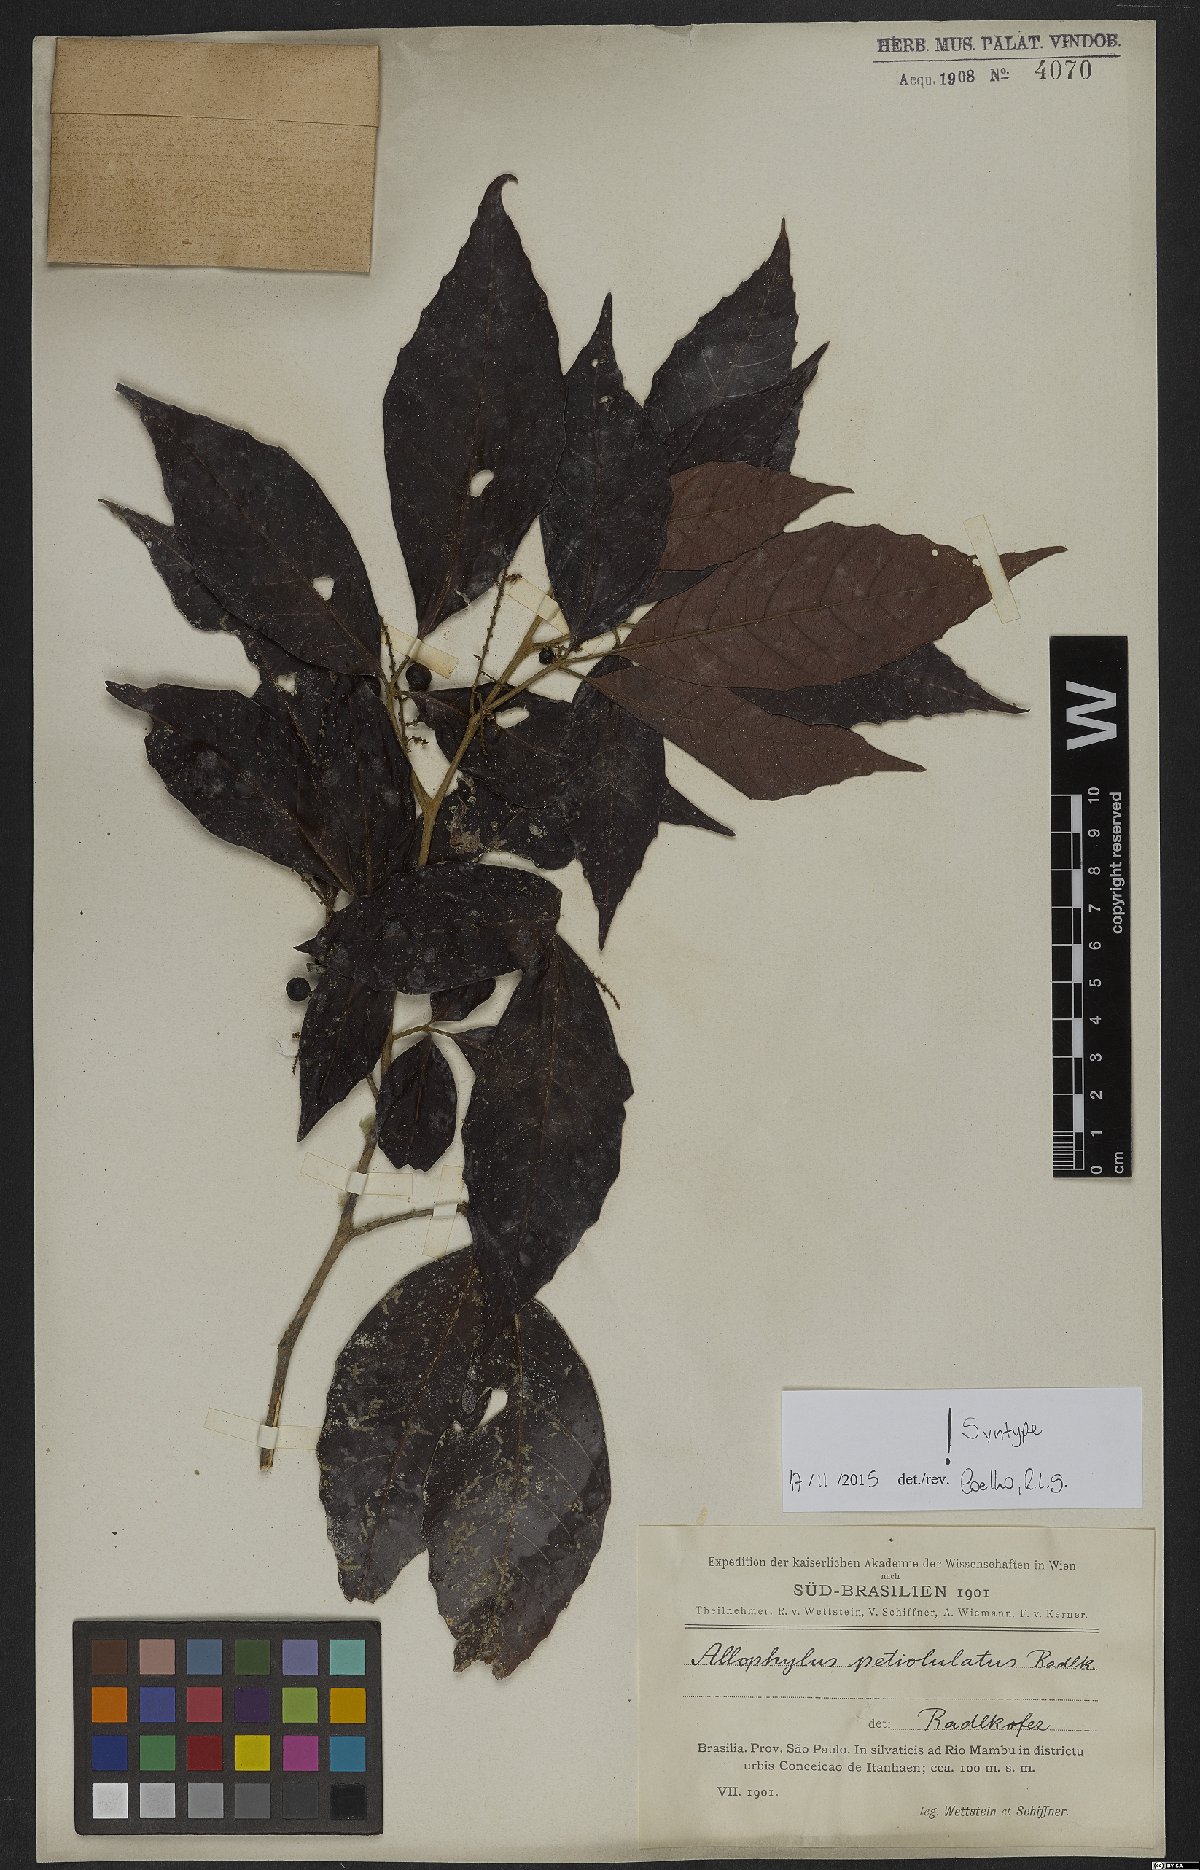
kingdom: Plantae
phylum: Tracheophyta
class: Magnoliopsida
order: Sapindales
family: Sapindaceae
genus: Allophylus
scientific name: Allophylus petiolulatus
